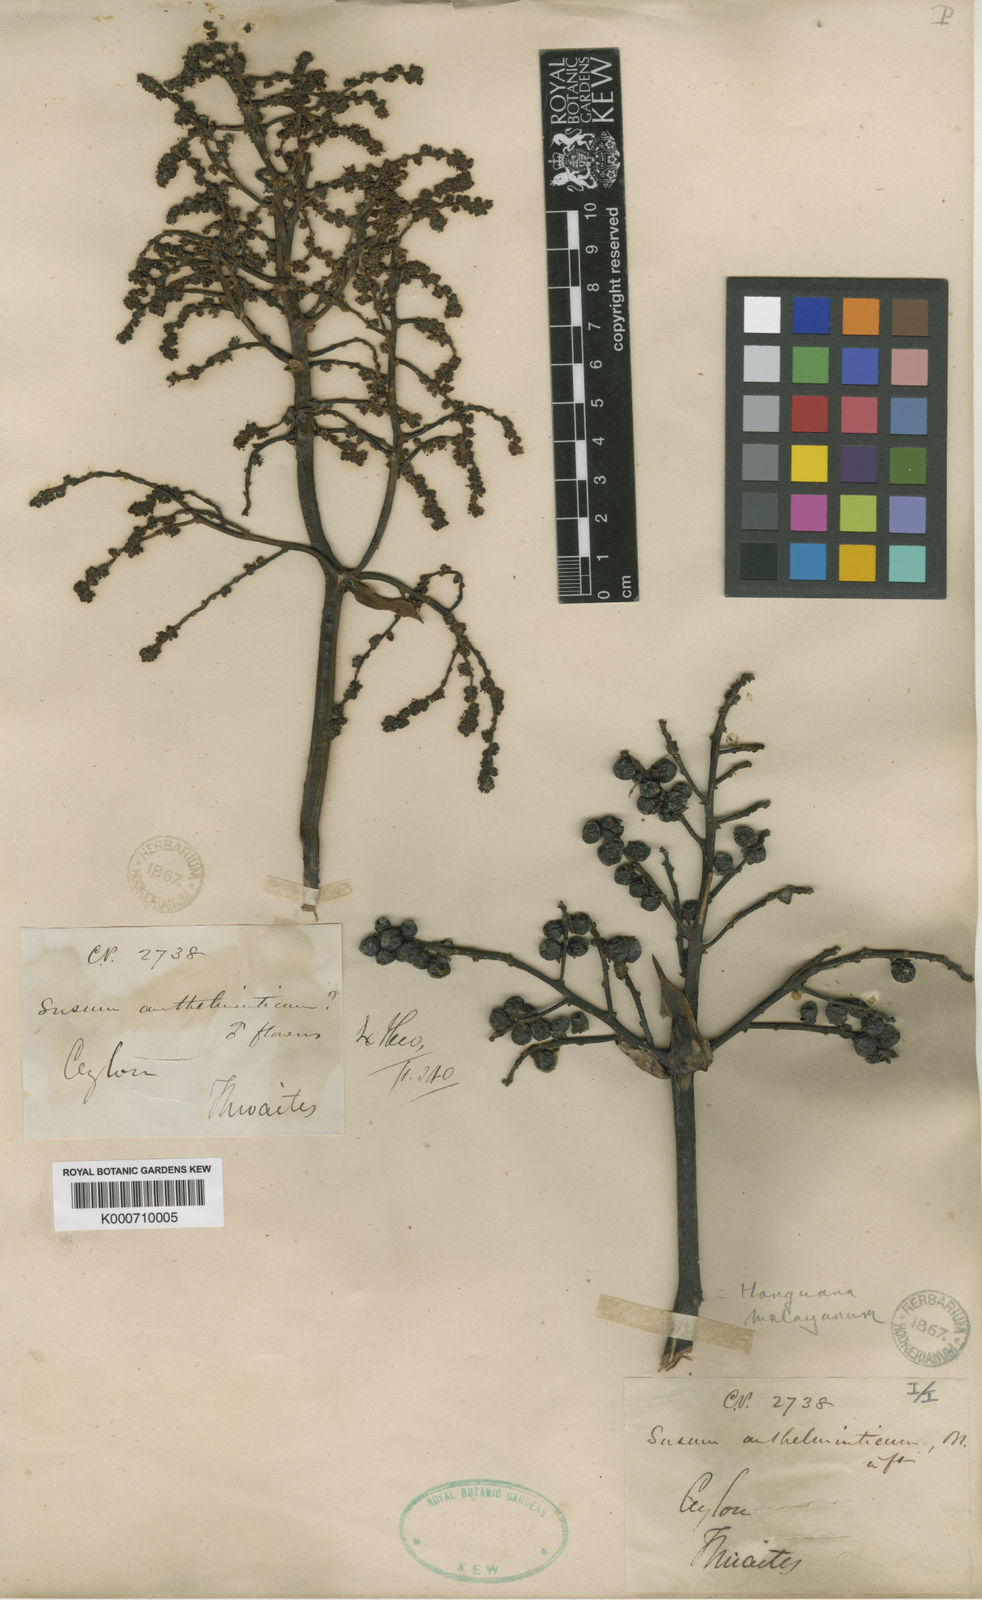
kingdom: Plantae
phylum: Tracheophyta
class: Liliopsida
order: Commelinales
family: Hanguanaceae
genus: Hanguana
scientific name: Hanguana malayana
